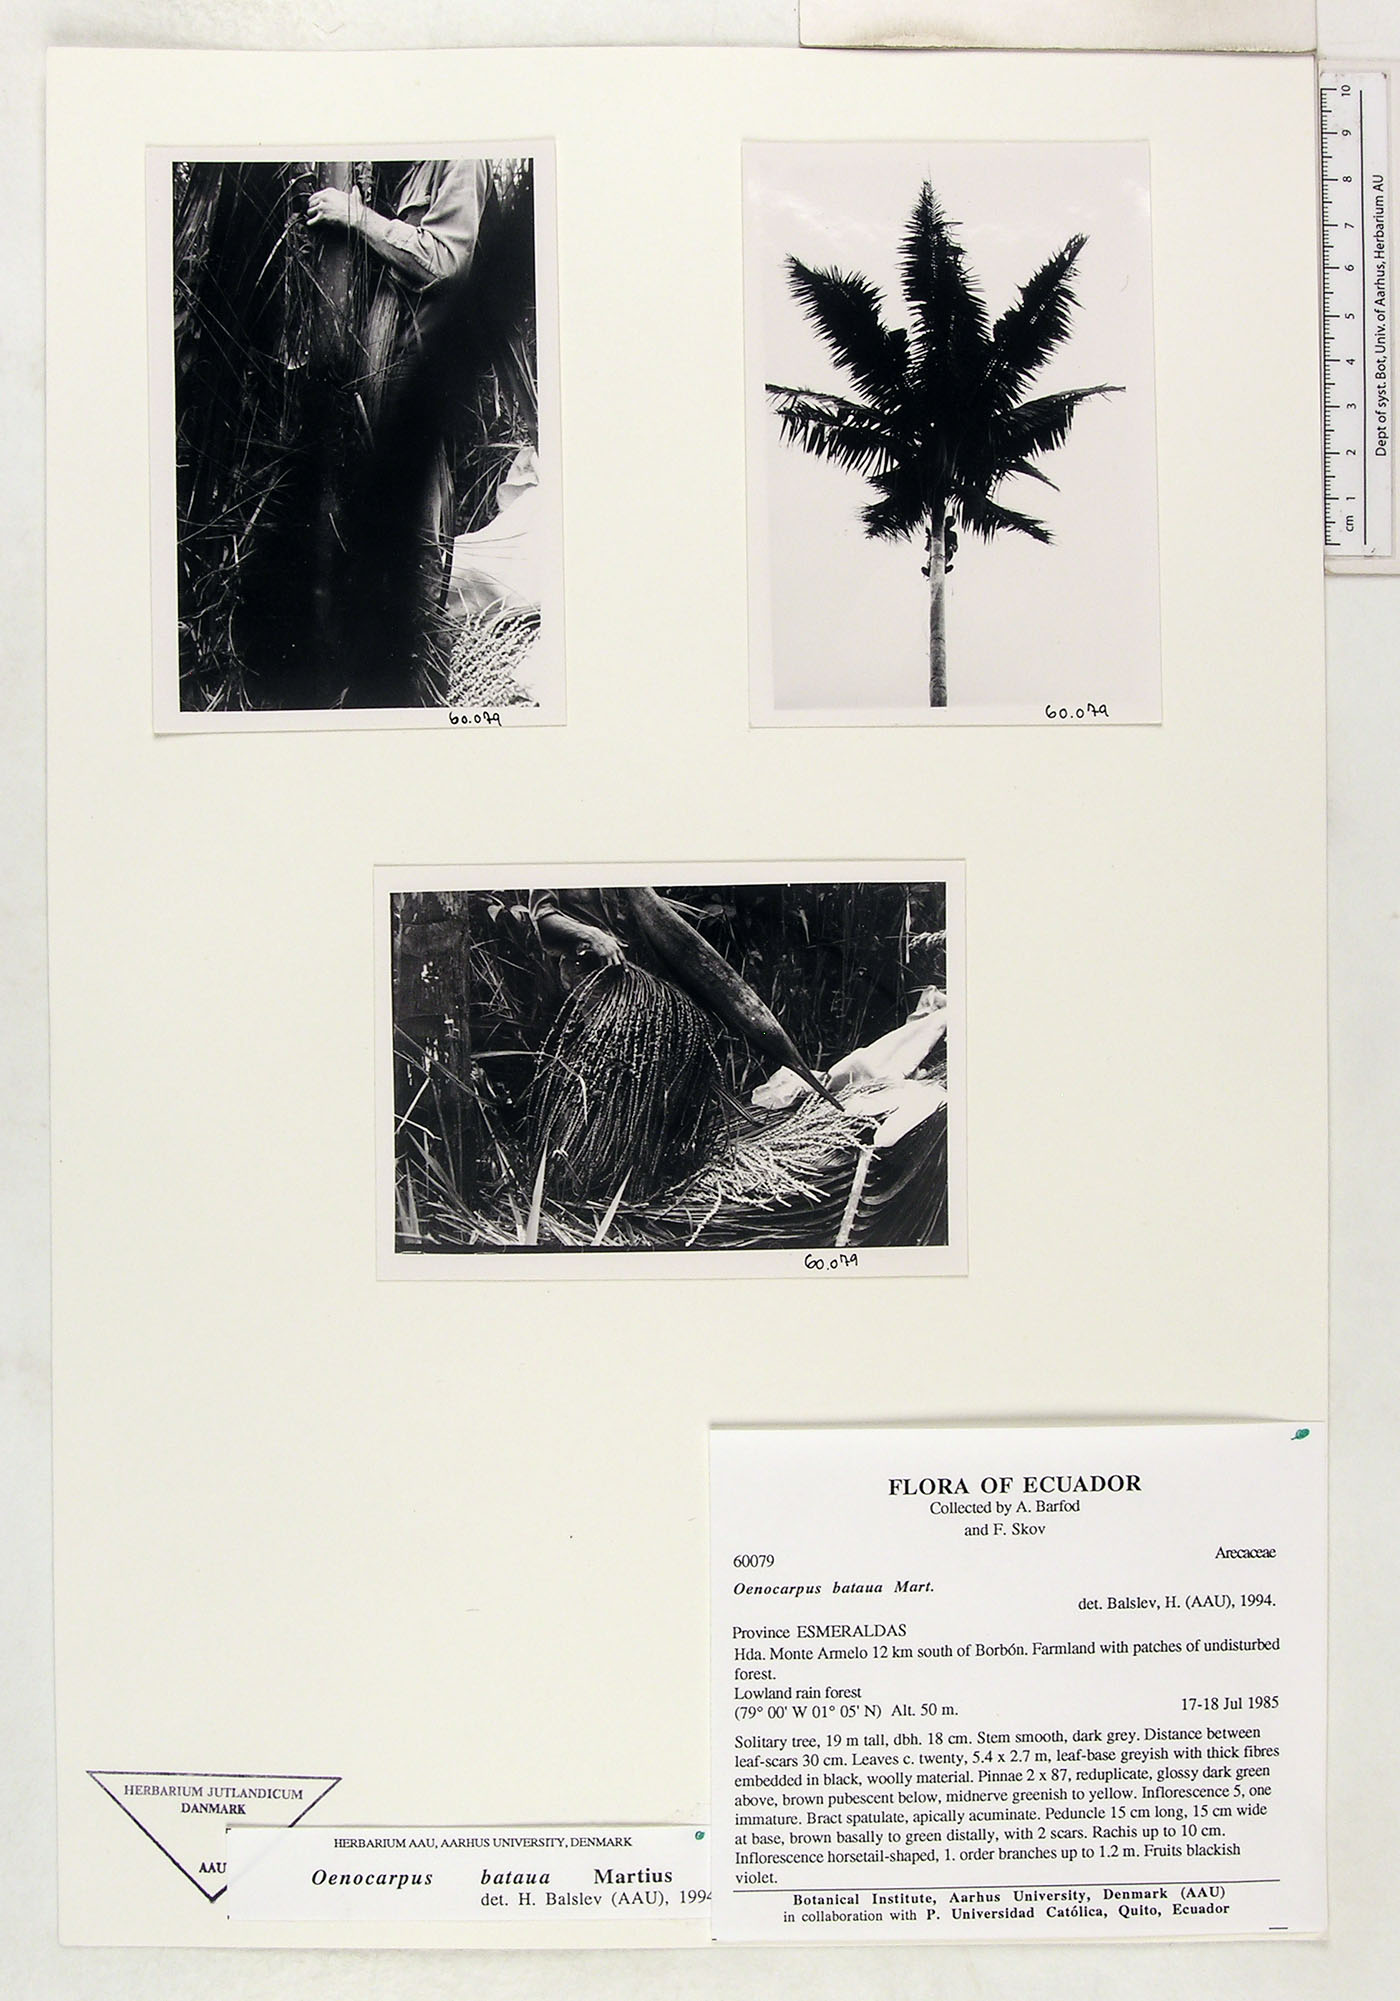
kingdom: Plantae
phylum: Tracheophyta
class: Liliopsida
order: Arecales
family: Arecaceae
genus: Oenocarpus
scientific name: Oenocarpus bataua
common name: Bataua palm
